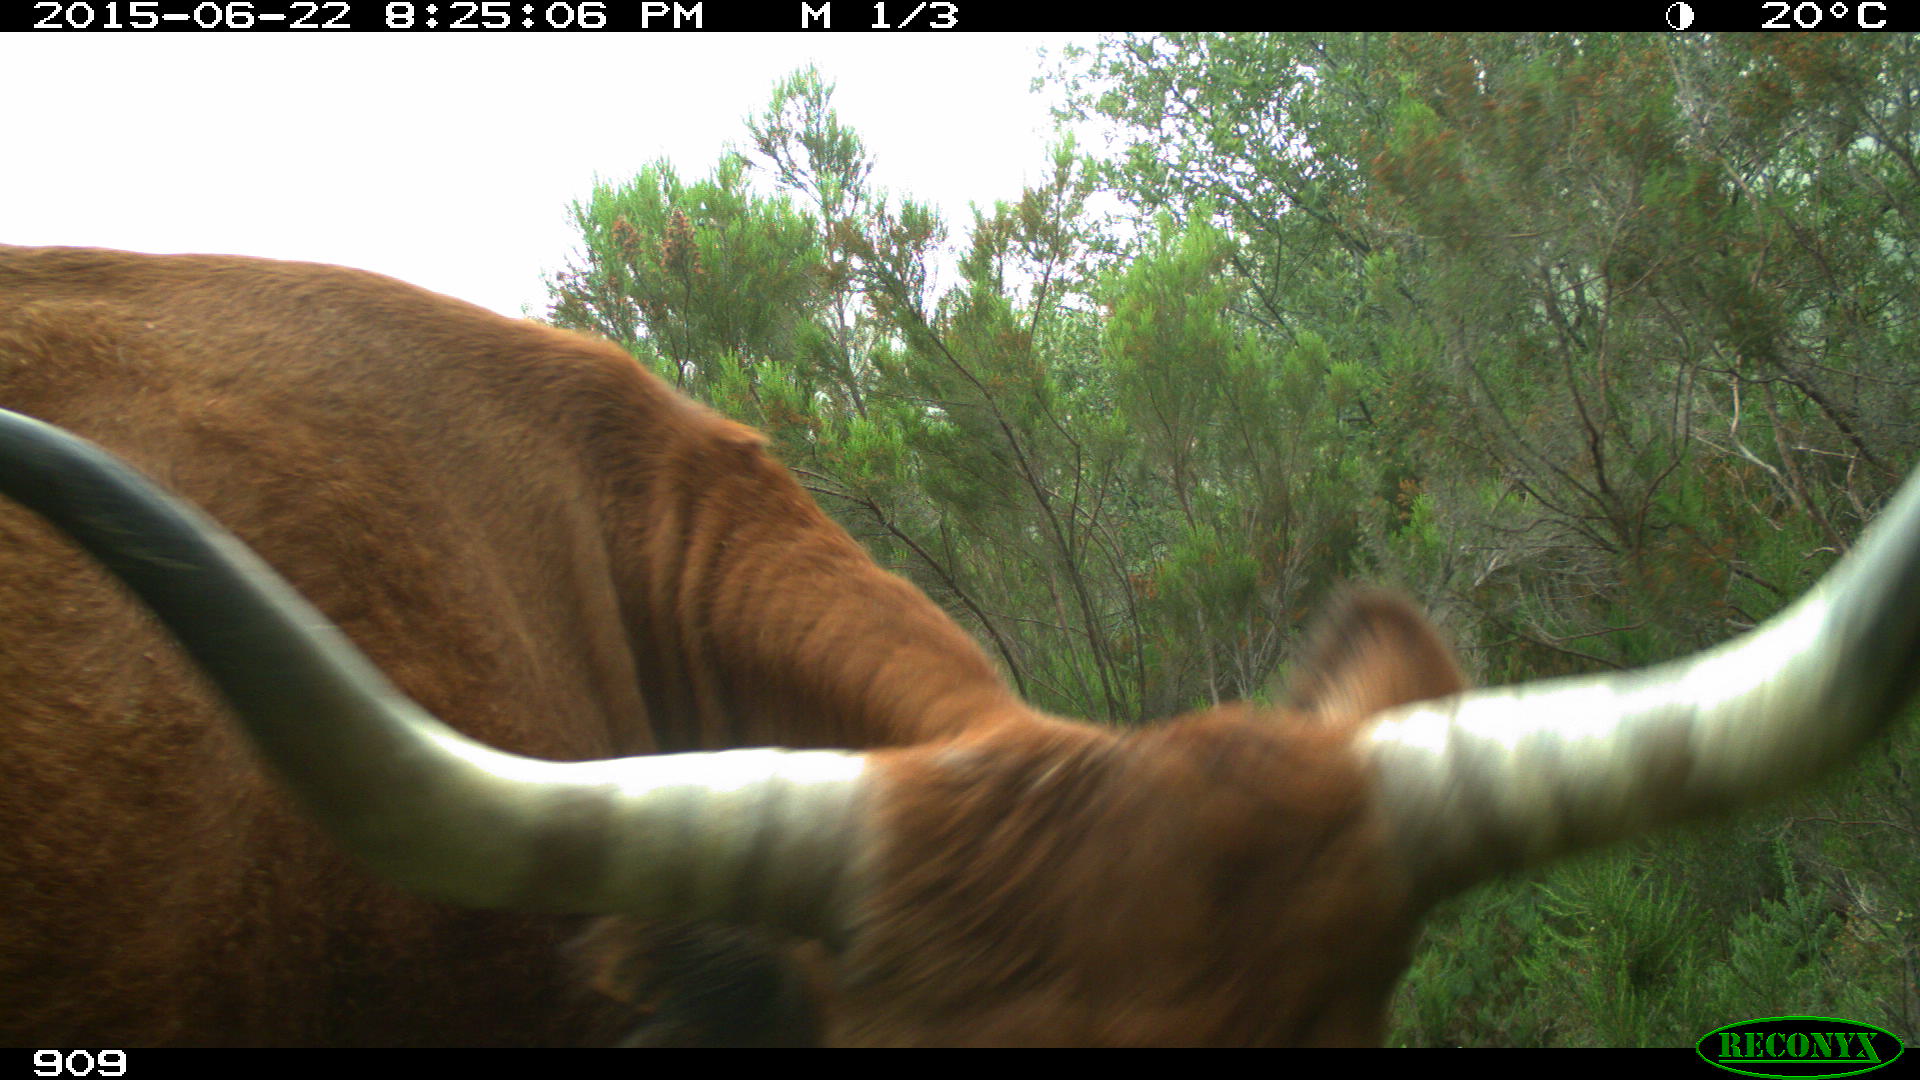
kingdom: Animalia
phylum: Chordata
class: Mammalia
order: Artiodactyla
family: Bovidae
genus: Bos
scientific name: Bos taurus
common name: Domesticated cattle
